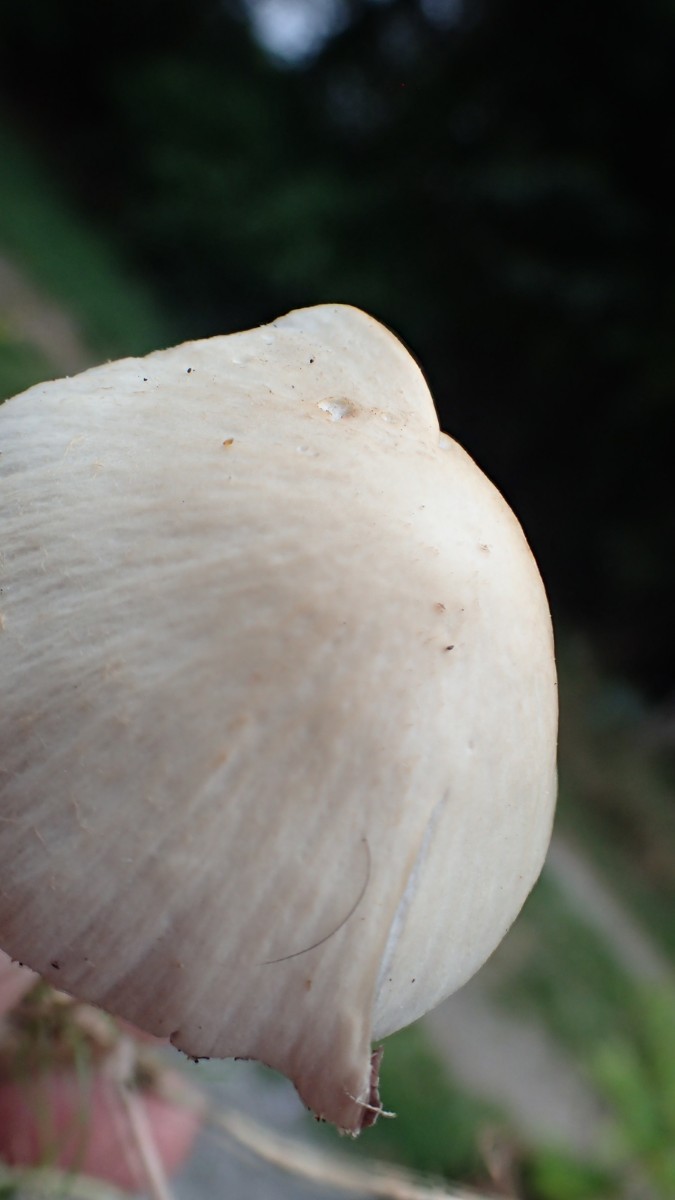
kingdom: Fungi
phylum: Basidiomycota
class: Agaricomycetes
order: Agaricales
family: Psathyrellaceae
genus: Candolleomyces
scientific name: Candolleomyces candolleanus
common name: Candolles mørkhat
